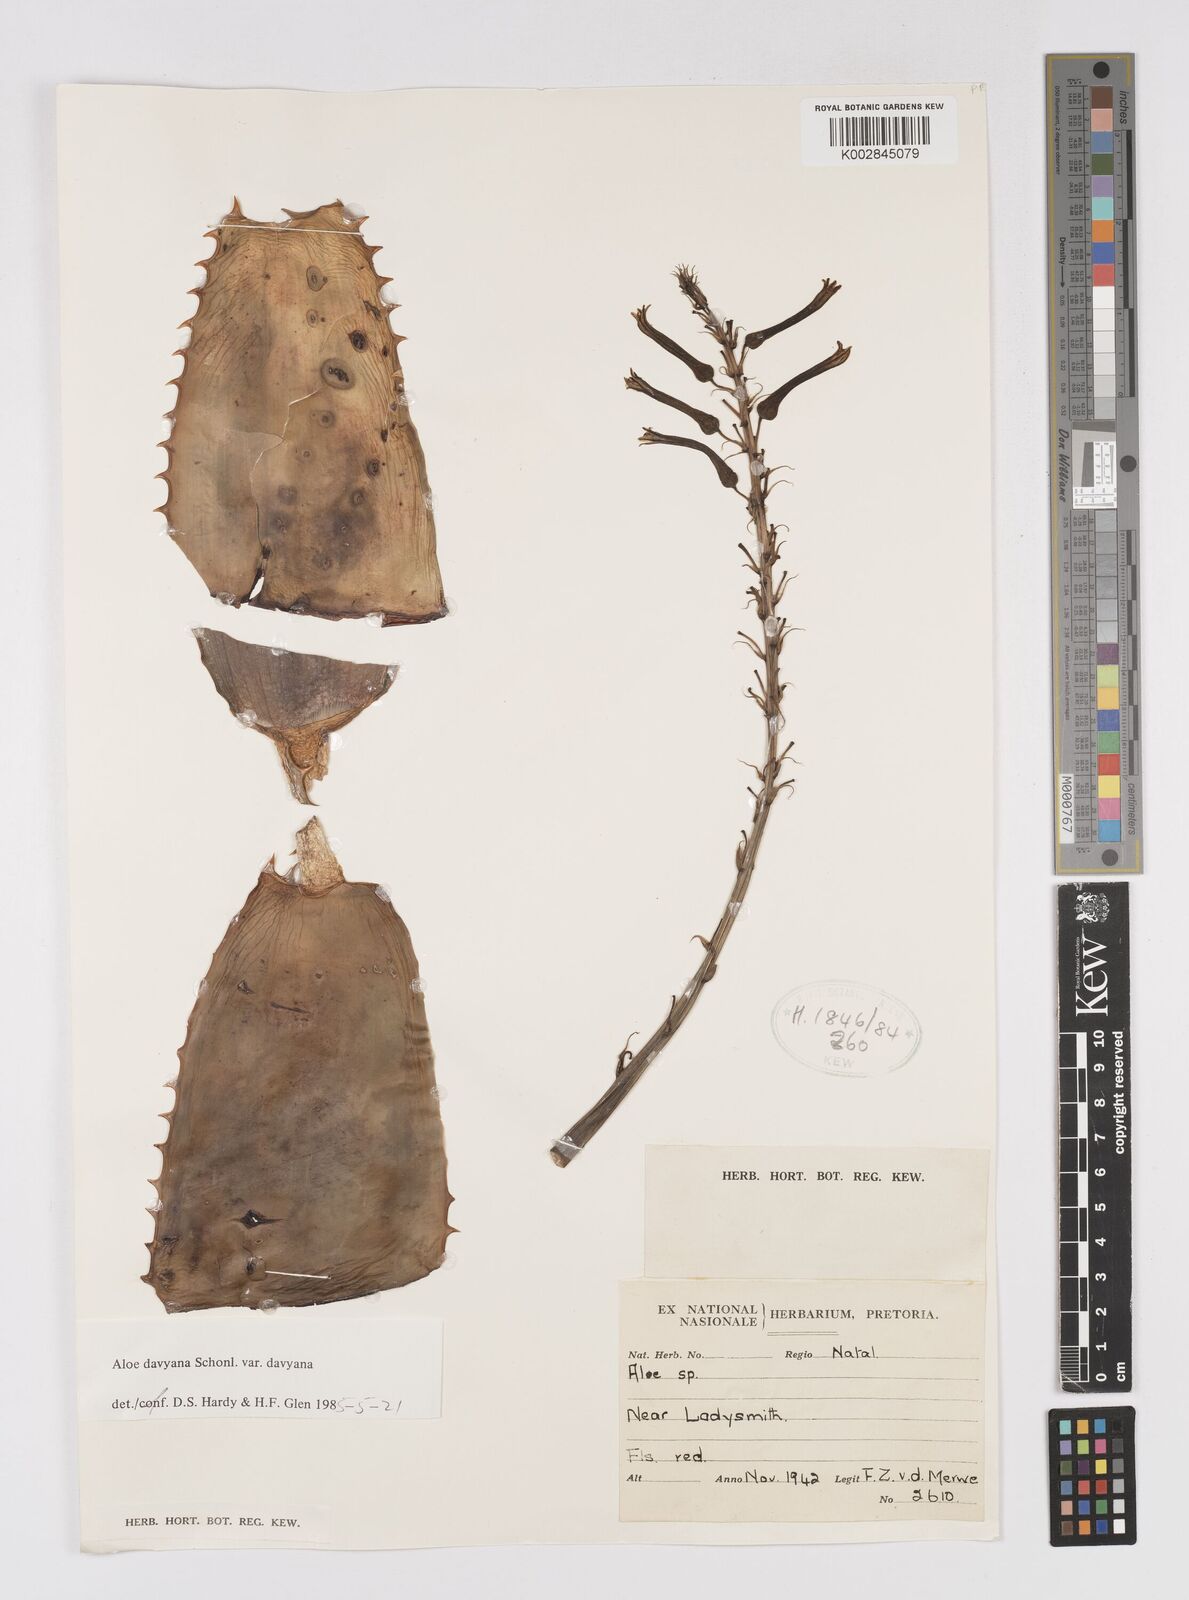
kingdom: Plantae
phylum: Tracheophyta
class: Liliopsida
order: Asparagales
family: Asphodelaceae
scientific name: Asphodelaceae
